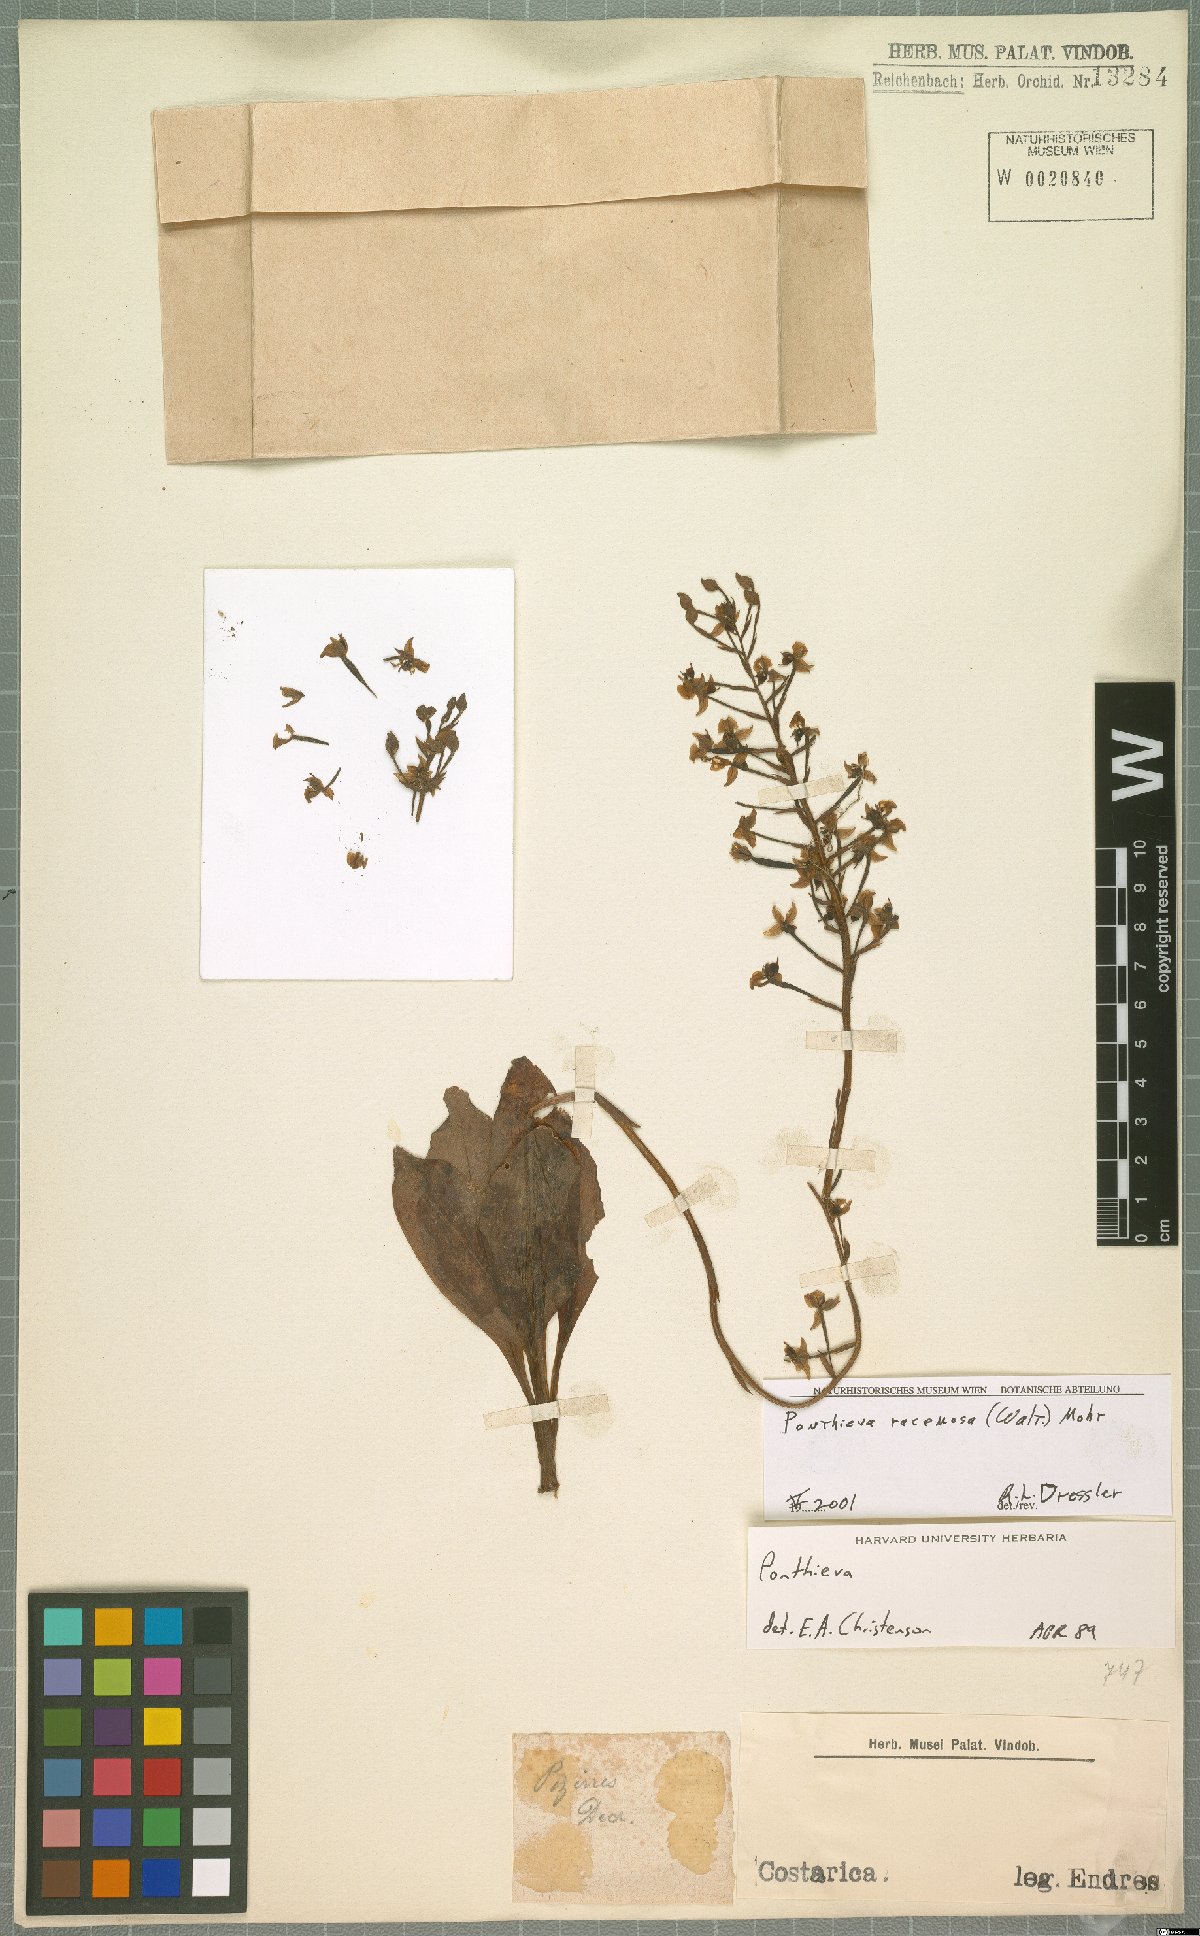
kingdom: Plantae
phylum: Tracheophyta
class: Liliopsida
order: Asparagales
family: Orchidaceae
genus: Ponthieva
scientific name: Ponthieva racemosa
